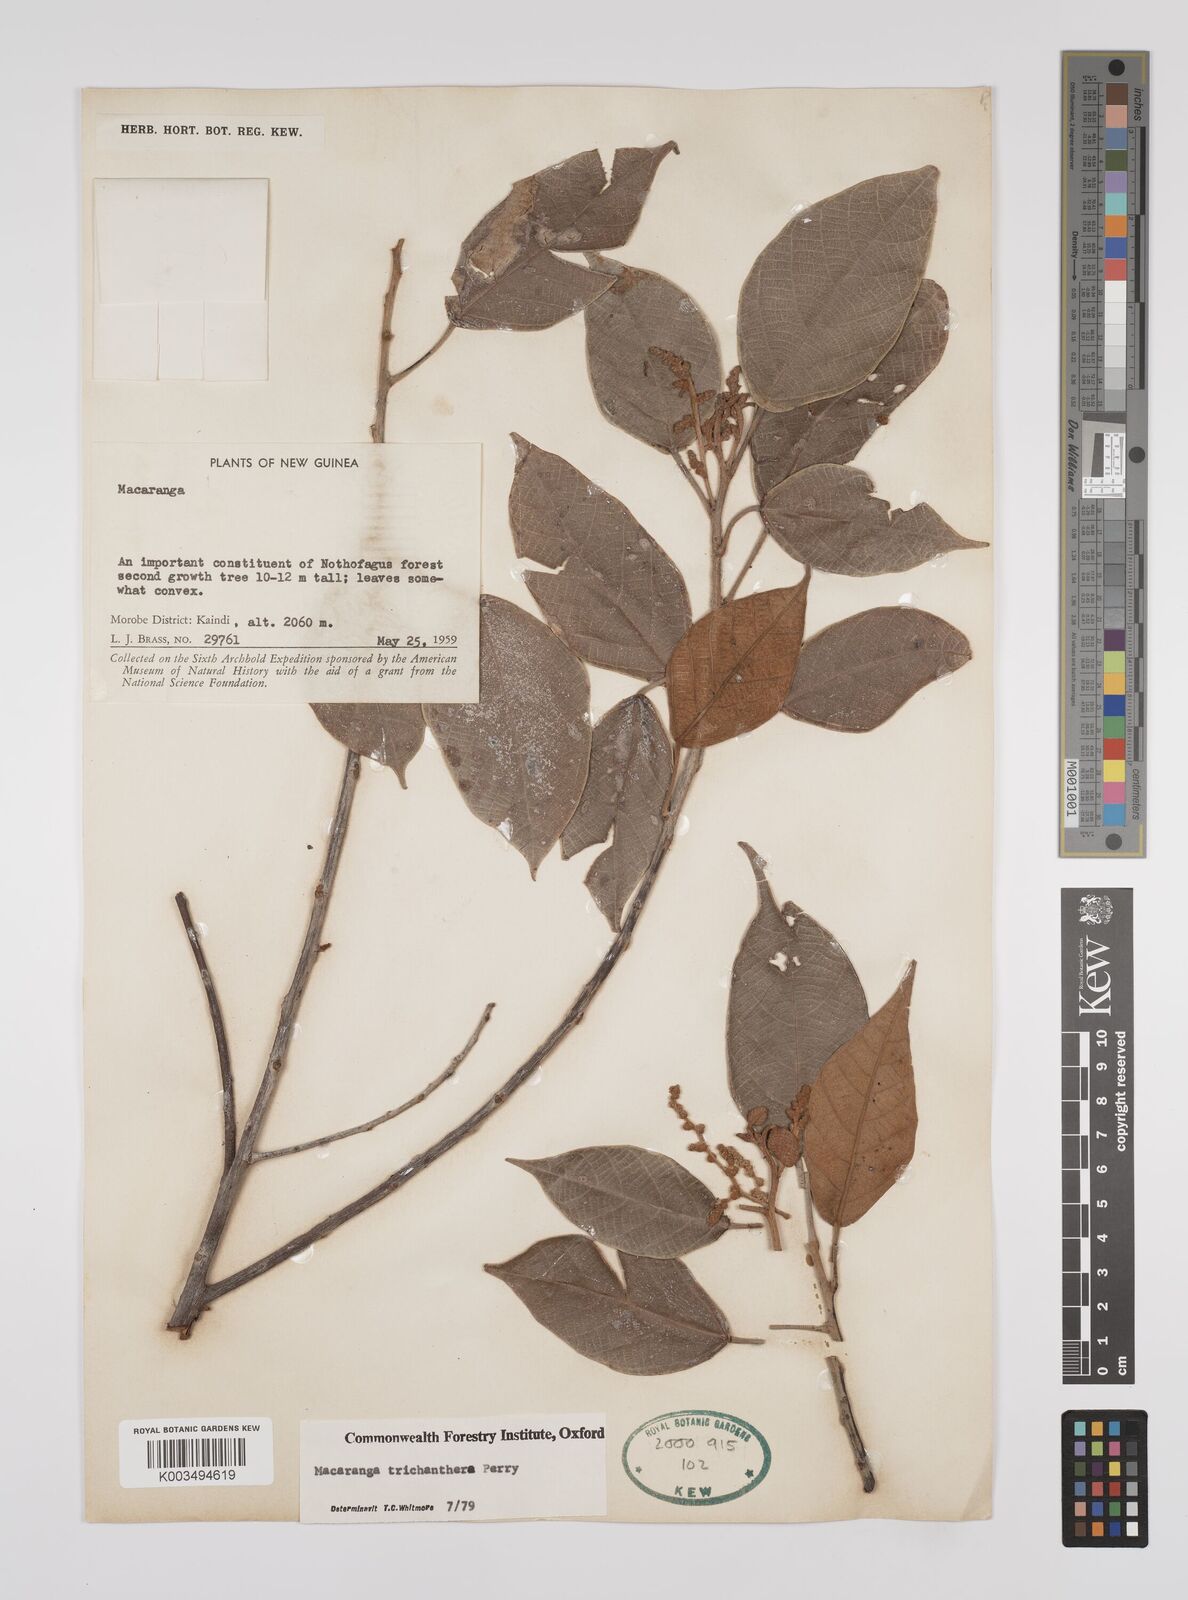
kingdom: Plantae
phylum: Tracheophyta
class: Magnoliopsida
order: Malpighiales
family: Euphorbiaceae
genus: Macaranga
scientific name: Macaranga trichanthera
